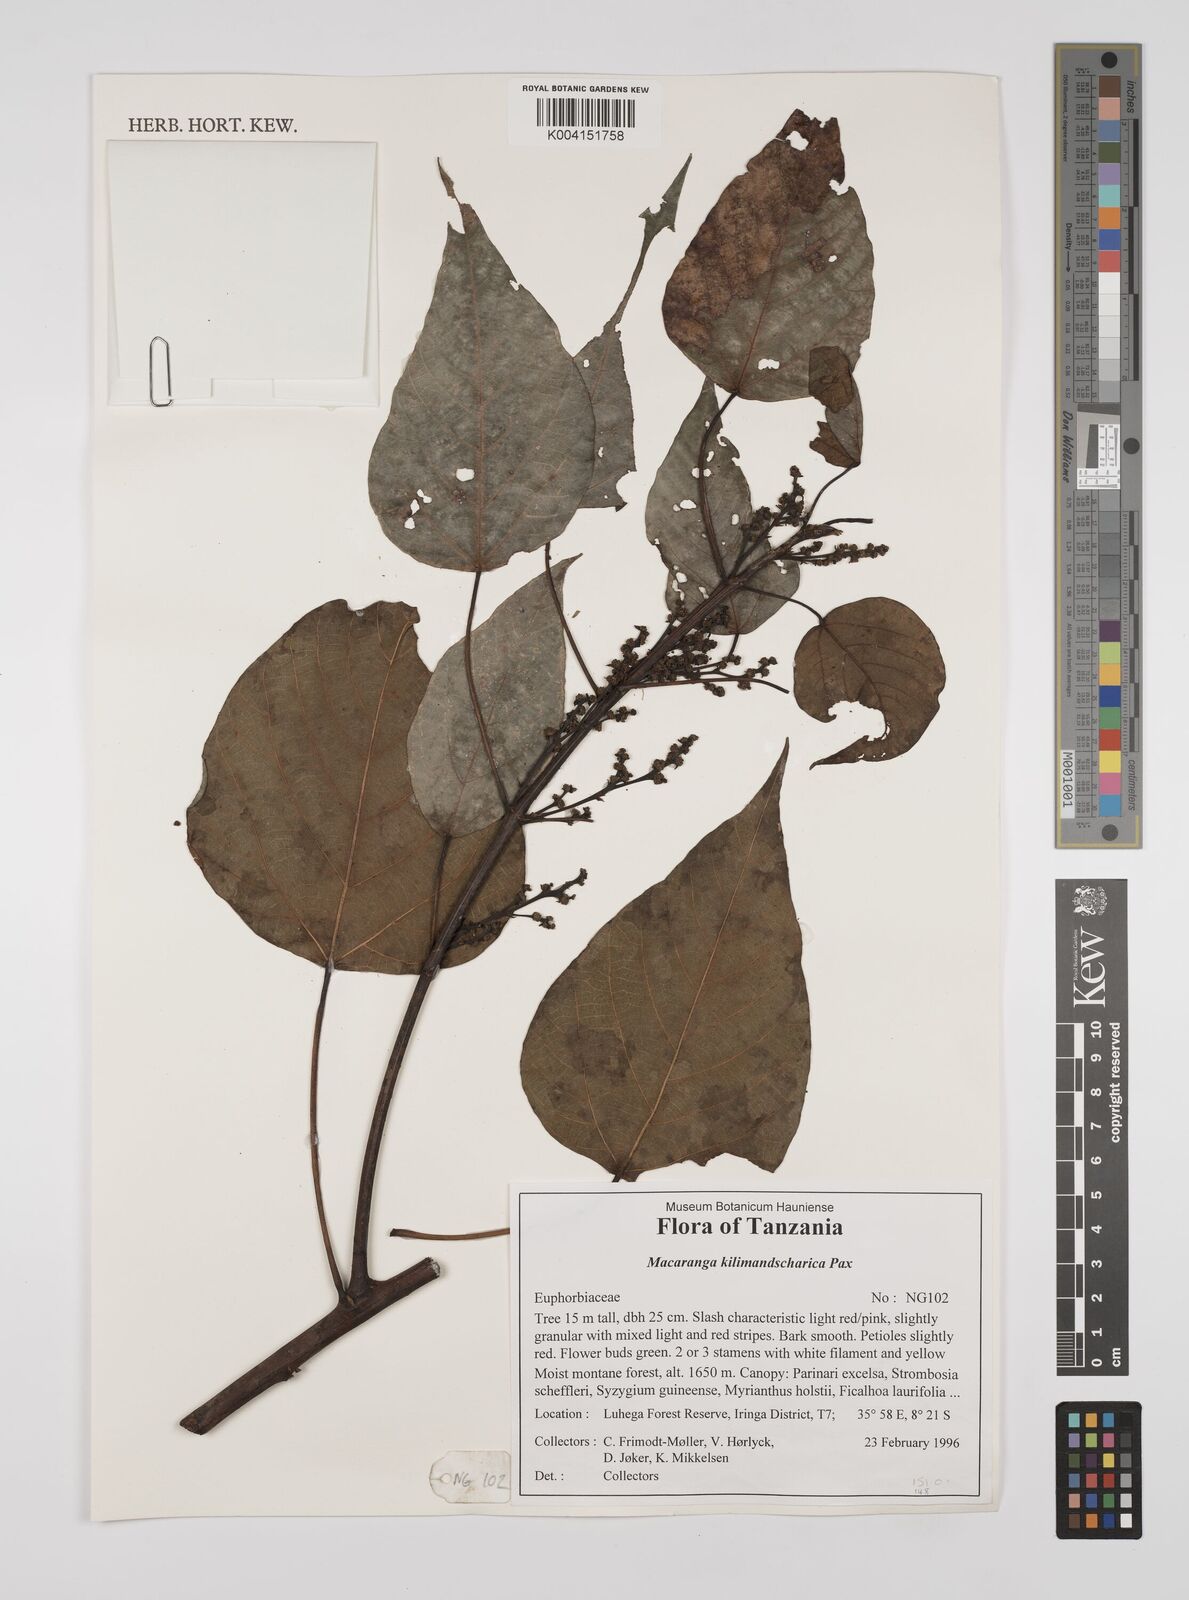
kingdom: Plantae
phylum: Tracheophyta
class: Magnoliopsida
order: Malpighiales
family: Euphorbiaceae
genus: Macaranga
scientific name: Macaranga kilimandscharica
